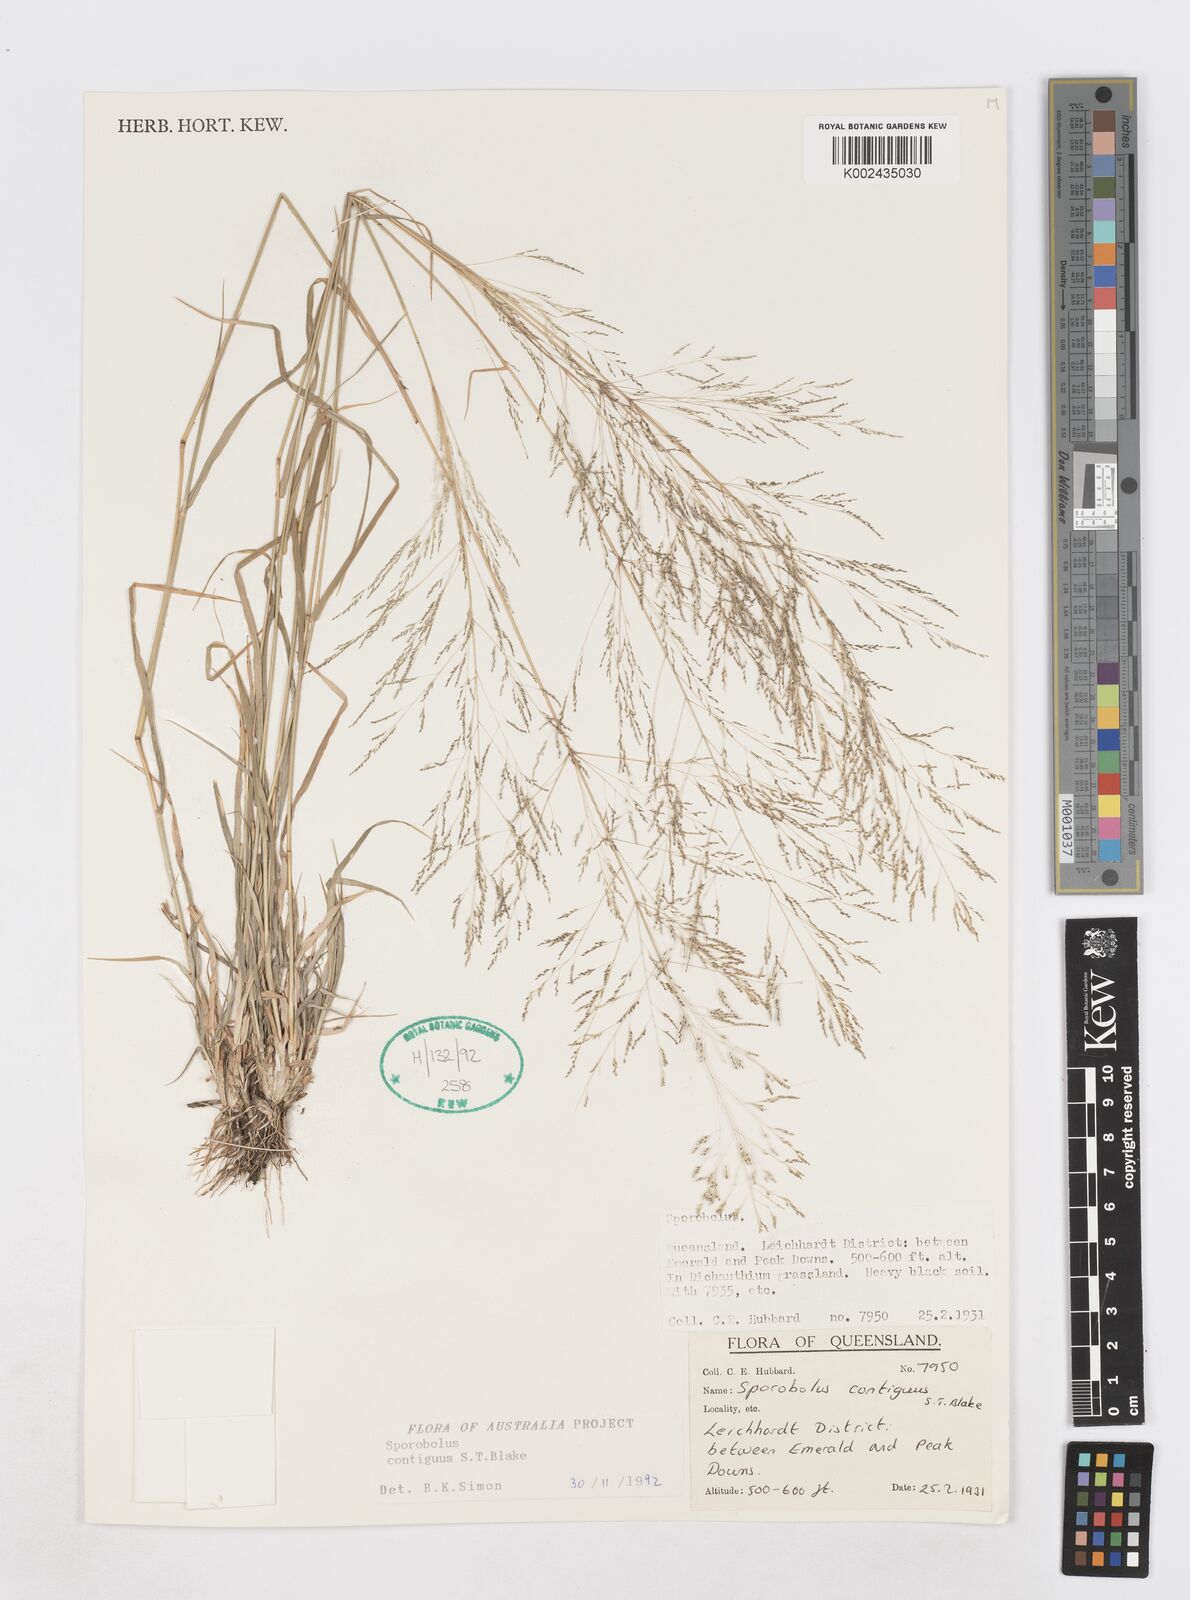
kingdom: Plantae
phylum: Tracheophyta
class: Liliopsida
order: Poales
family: Poaceae
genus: Sporobolus
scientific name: Sporobolus contiguus
